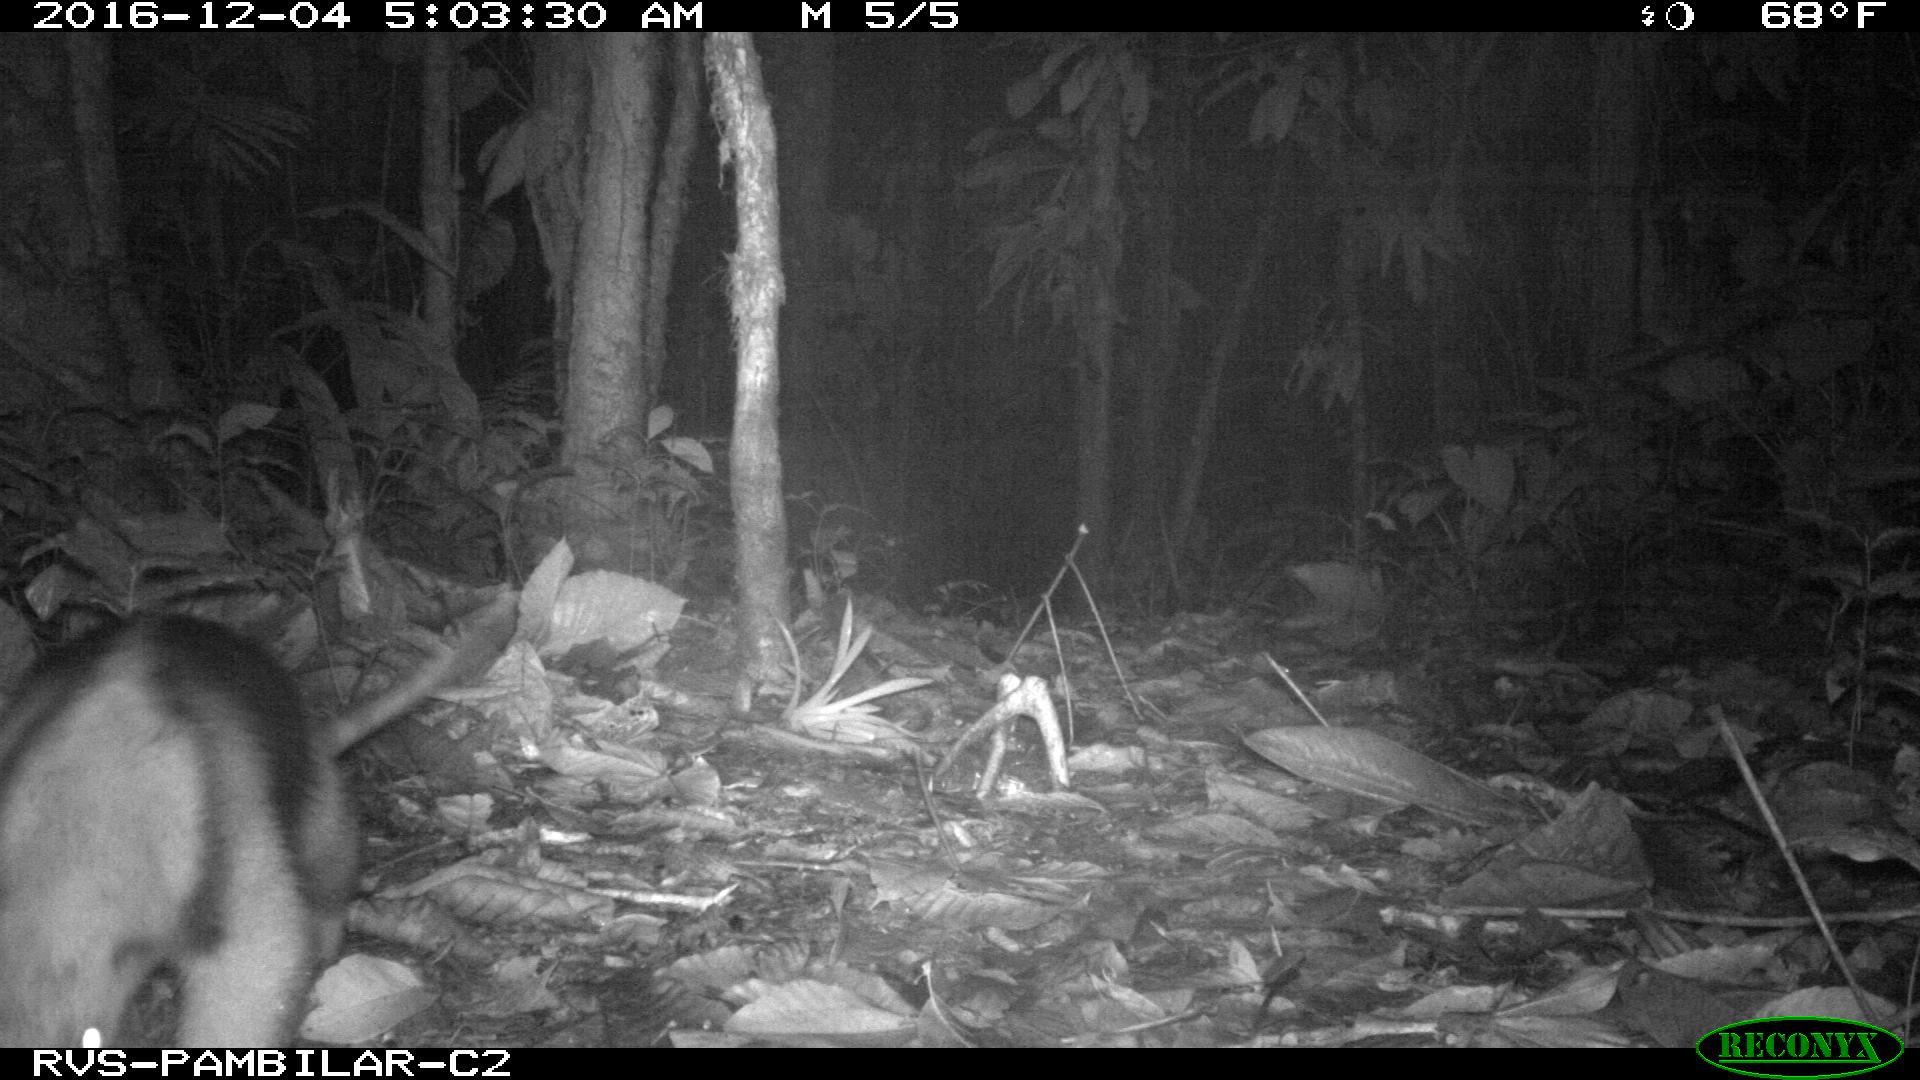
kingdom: Animalia
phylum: Chordata
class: Mammalia
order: Pilosa
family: Myrmecophagidae
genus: Tamandua
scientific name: Tamandua mexicana
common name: Northern tamandua
